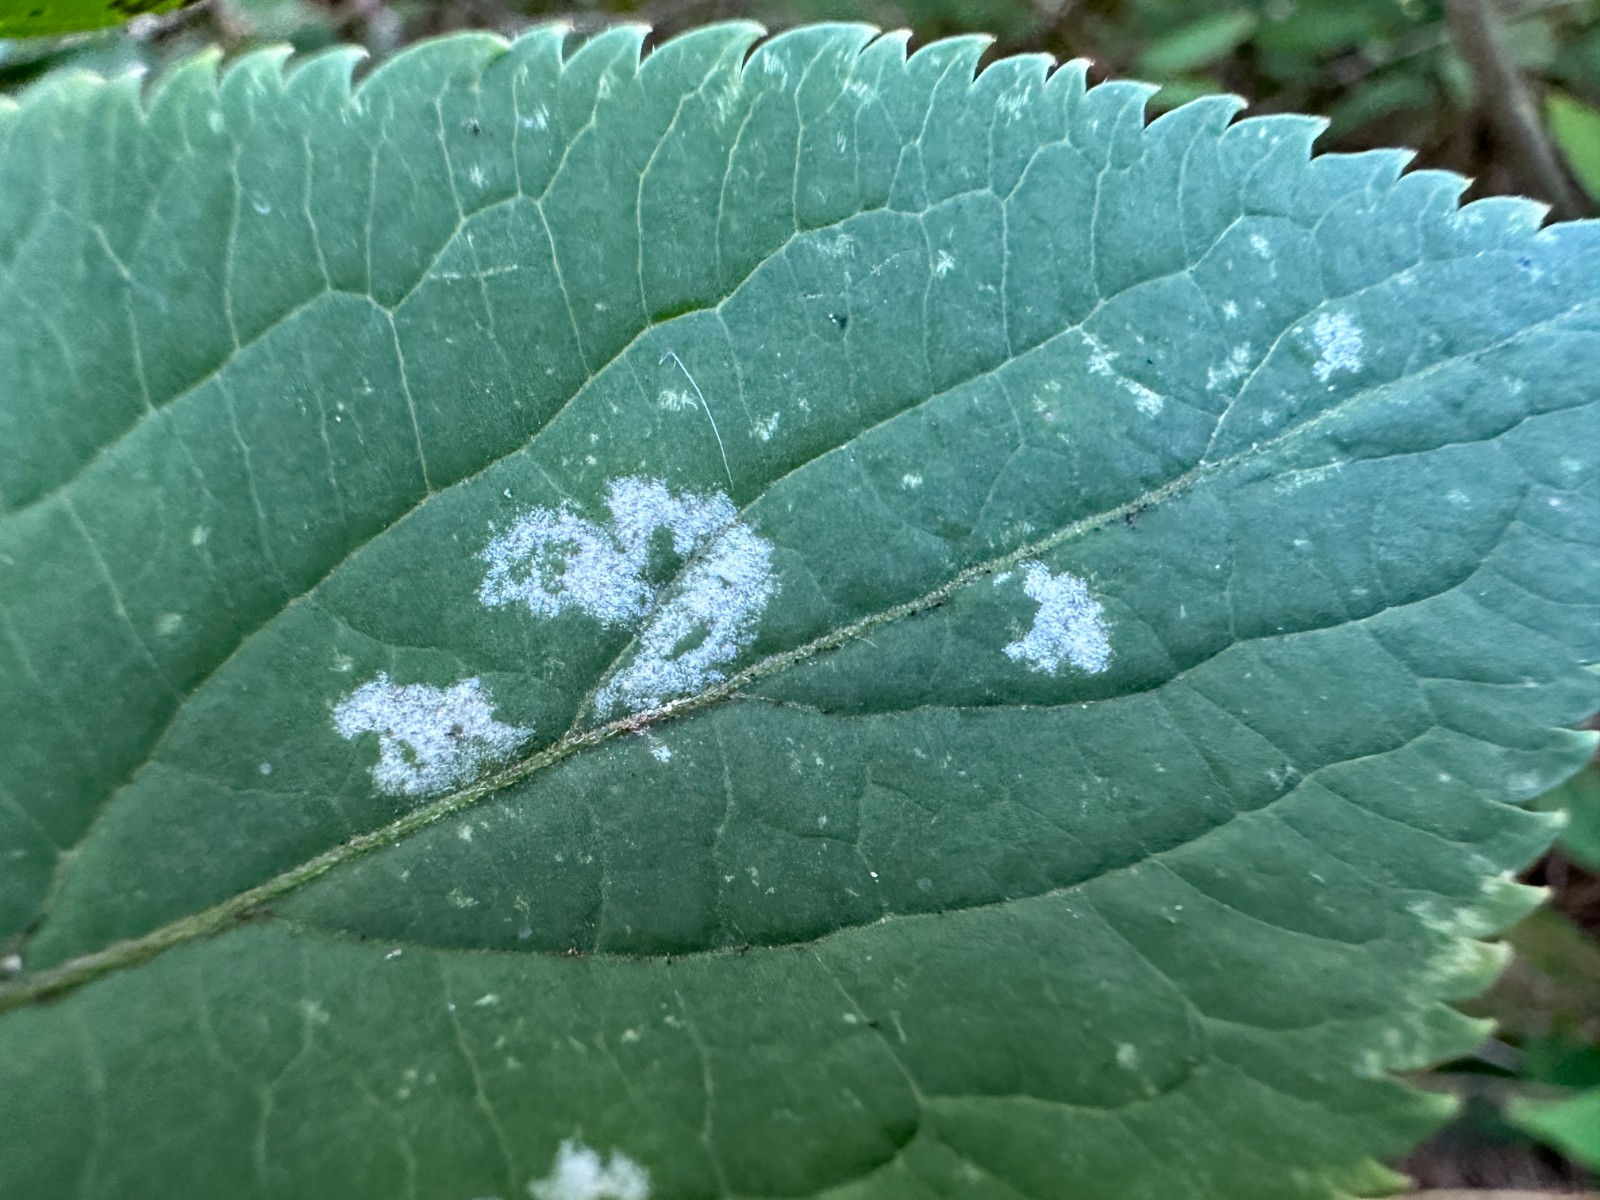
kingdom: Fungi
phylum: Ascomycota
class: Leotiomycetes
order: Helotiales
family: Erysiphaceae
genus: Erysiphe
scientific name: Erysiphe vanbruntiana
